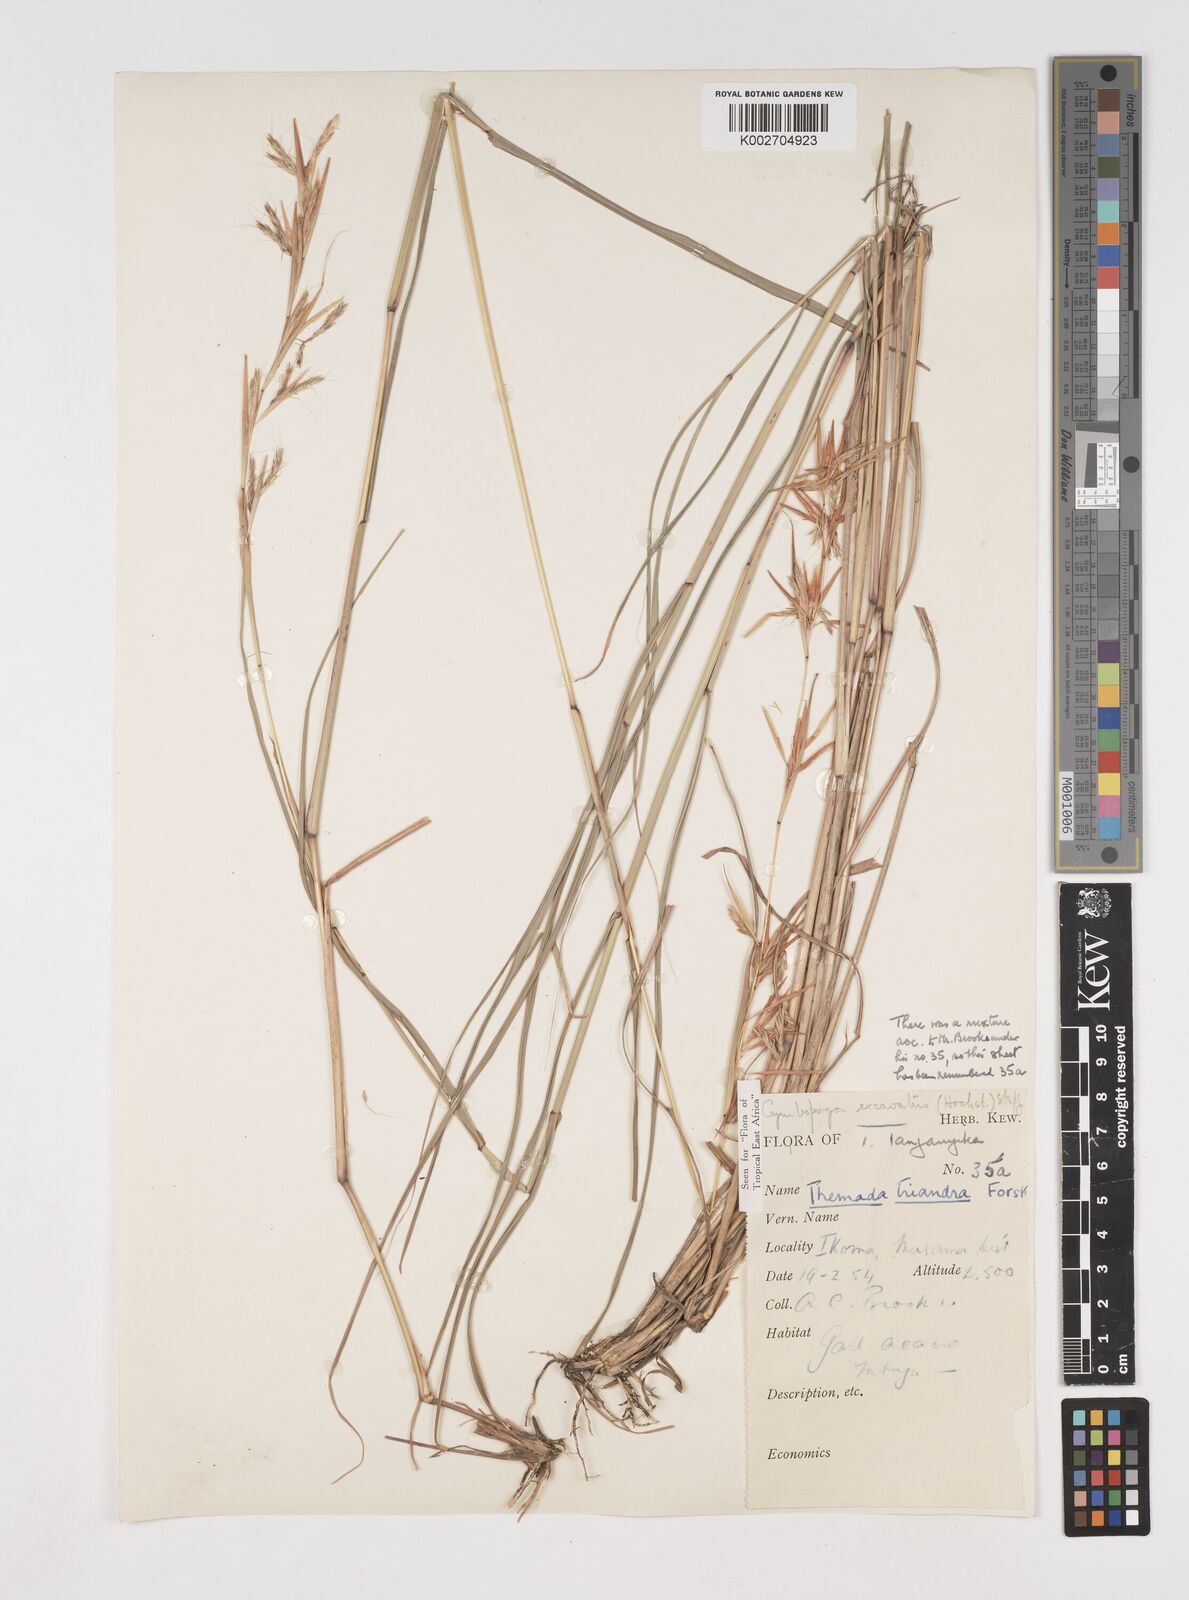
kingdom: Plantae
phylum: Tracheophyta
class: Liliopsida
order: Poales
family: Poaceae
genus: Cymbopogon
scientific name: Cymbopogon caesius
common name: Kachi grass
